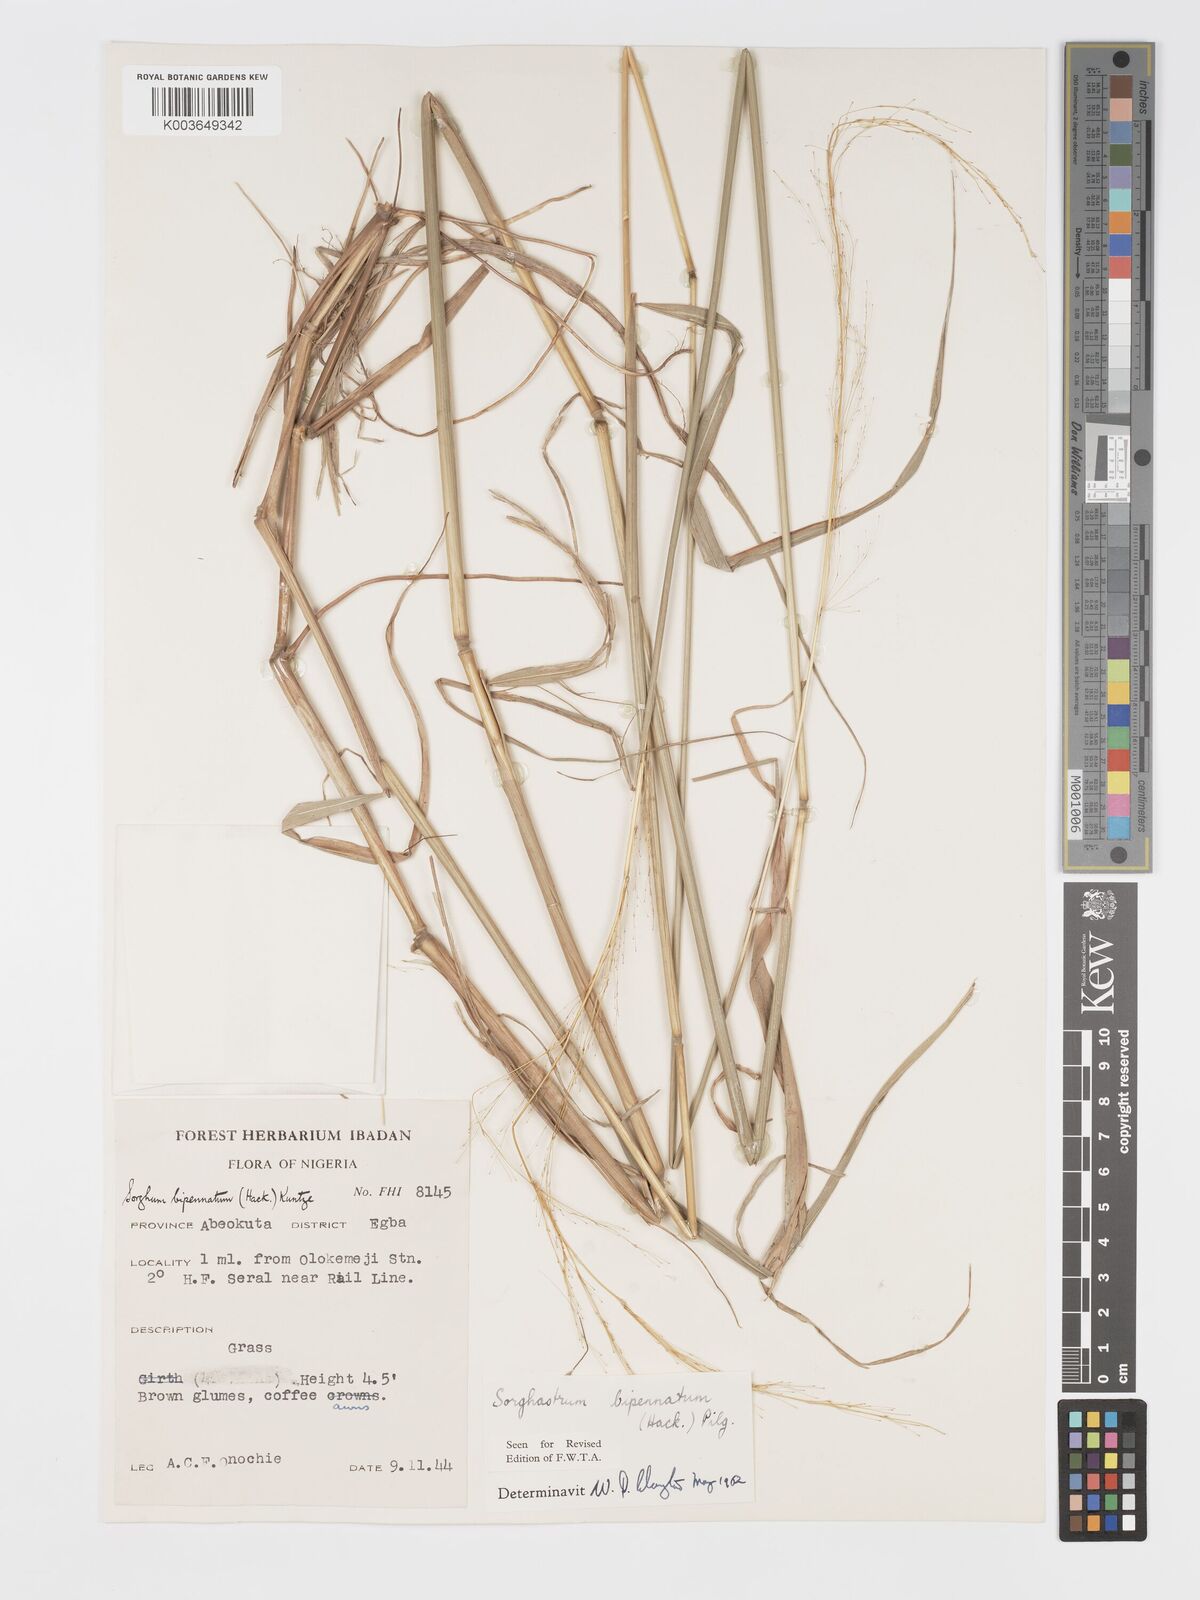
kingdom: Plantae
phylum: Tracheophyta
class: Liliopsida
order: Poales
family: Poaceae
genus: Sorghastrum
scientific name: Sorghastrum incompletum
